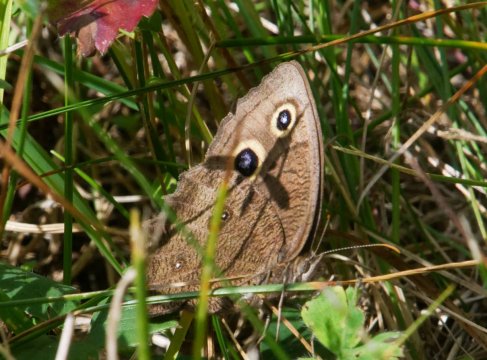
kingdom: Animalia
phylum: Arthropoda
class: Insecta
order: Lepidoptera
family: Nymphalidae
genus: Cercyonis
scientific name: Cercyonis pegala
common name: Common Wood-Nymph
